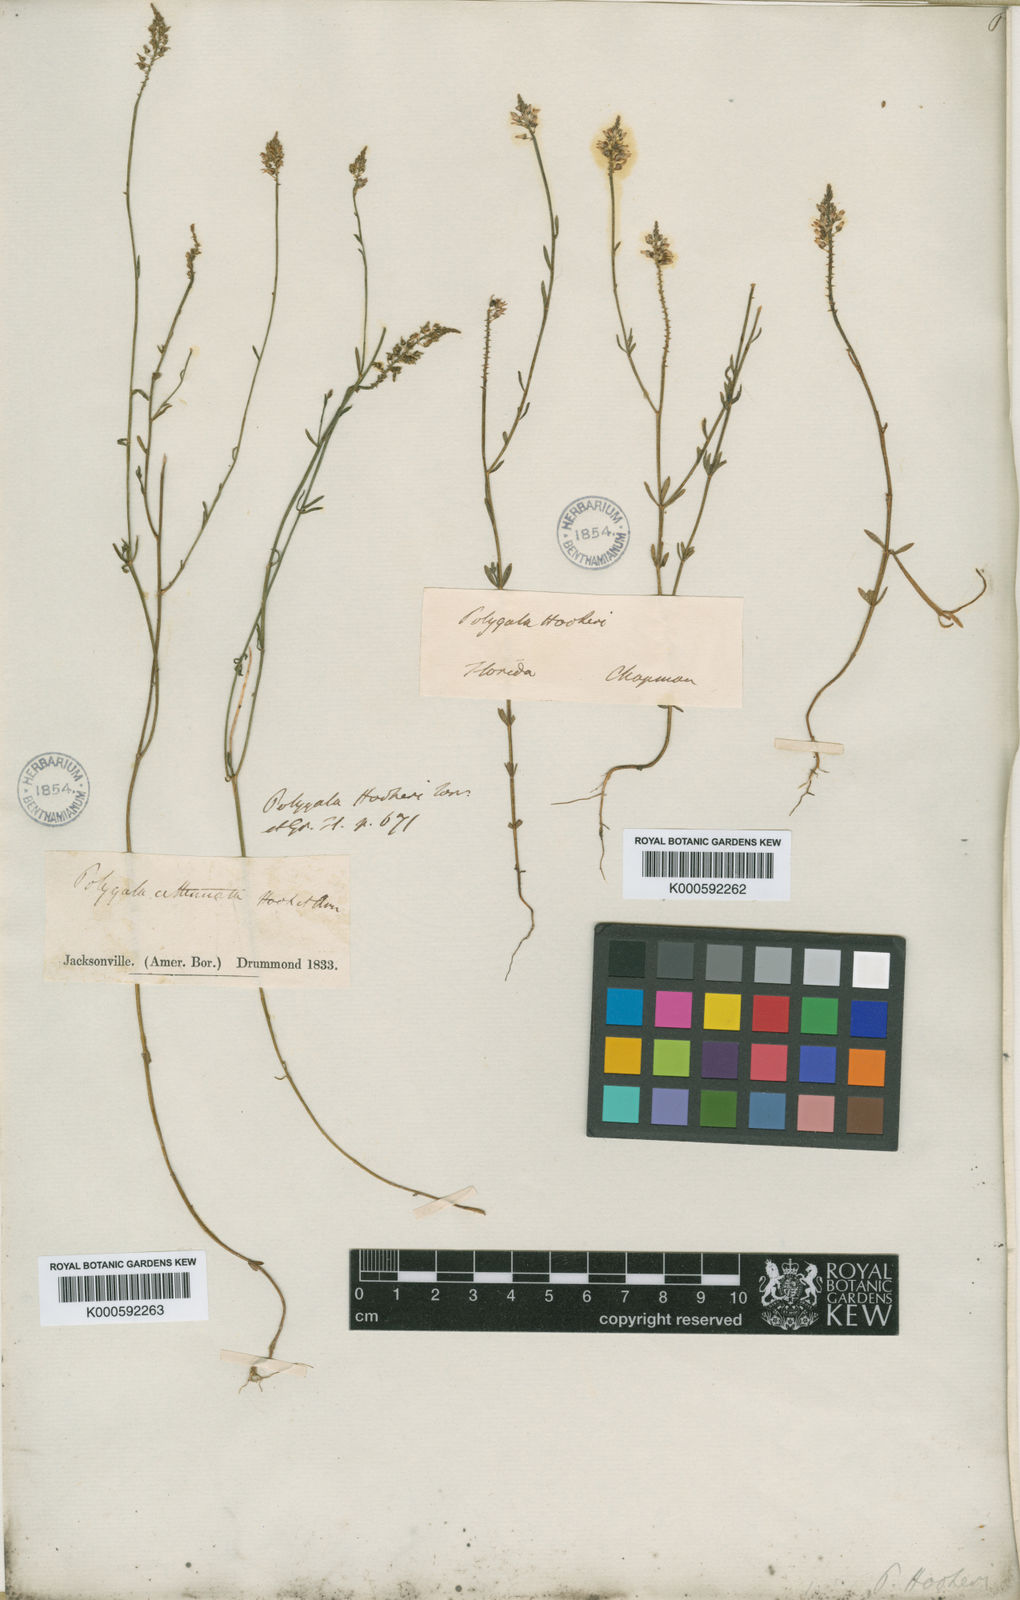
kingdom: Plantae
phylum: Tracheophyta
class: Magnoliopsida
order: Fabales
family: Polygalaceae
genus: Polygala
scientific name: Polygala hookeri
